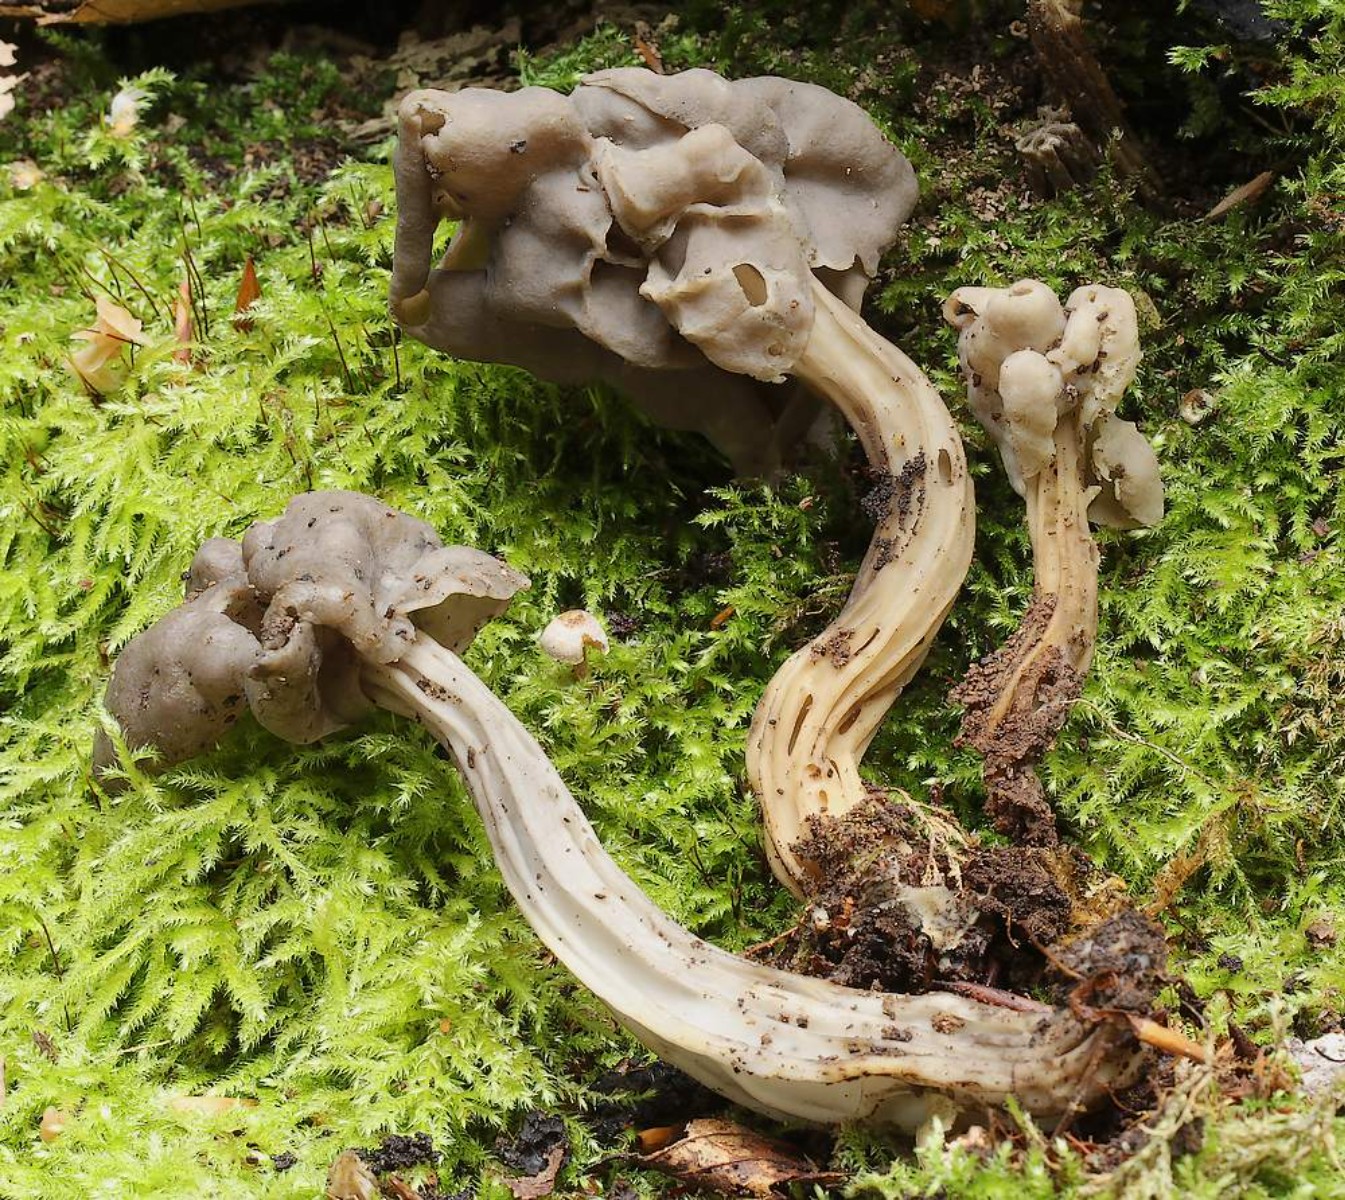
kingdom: Fungi
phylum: Ascomycota
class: Pezizomycetes
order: Pezizales
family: Helvellaceae
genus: Helvella
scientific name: Helvella lacunosa
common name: grubet foldhat
